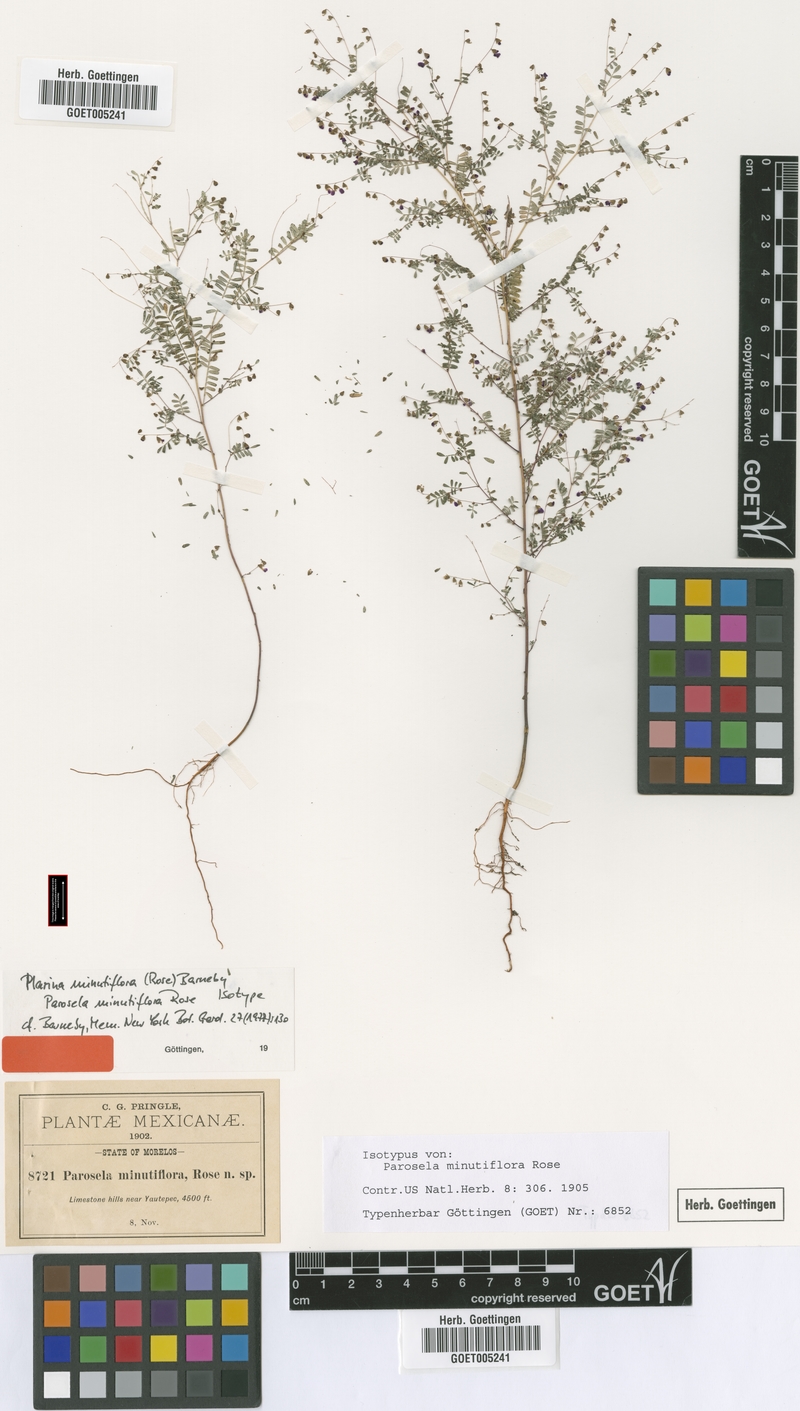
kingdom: Plantae
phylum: Tracheophyta
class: Magnoliopsida
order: Fabales
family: Fabaceae
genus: Marina
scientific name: Marina minutiflora
